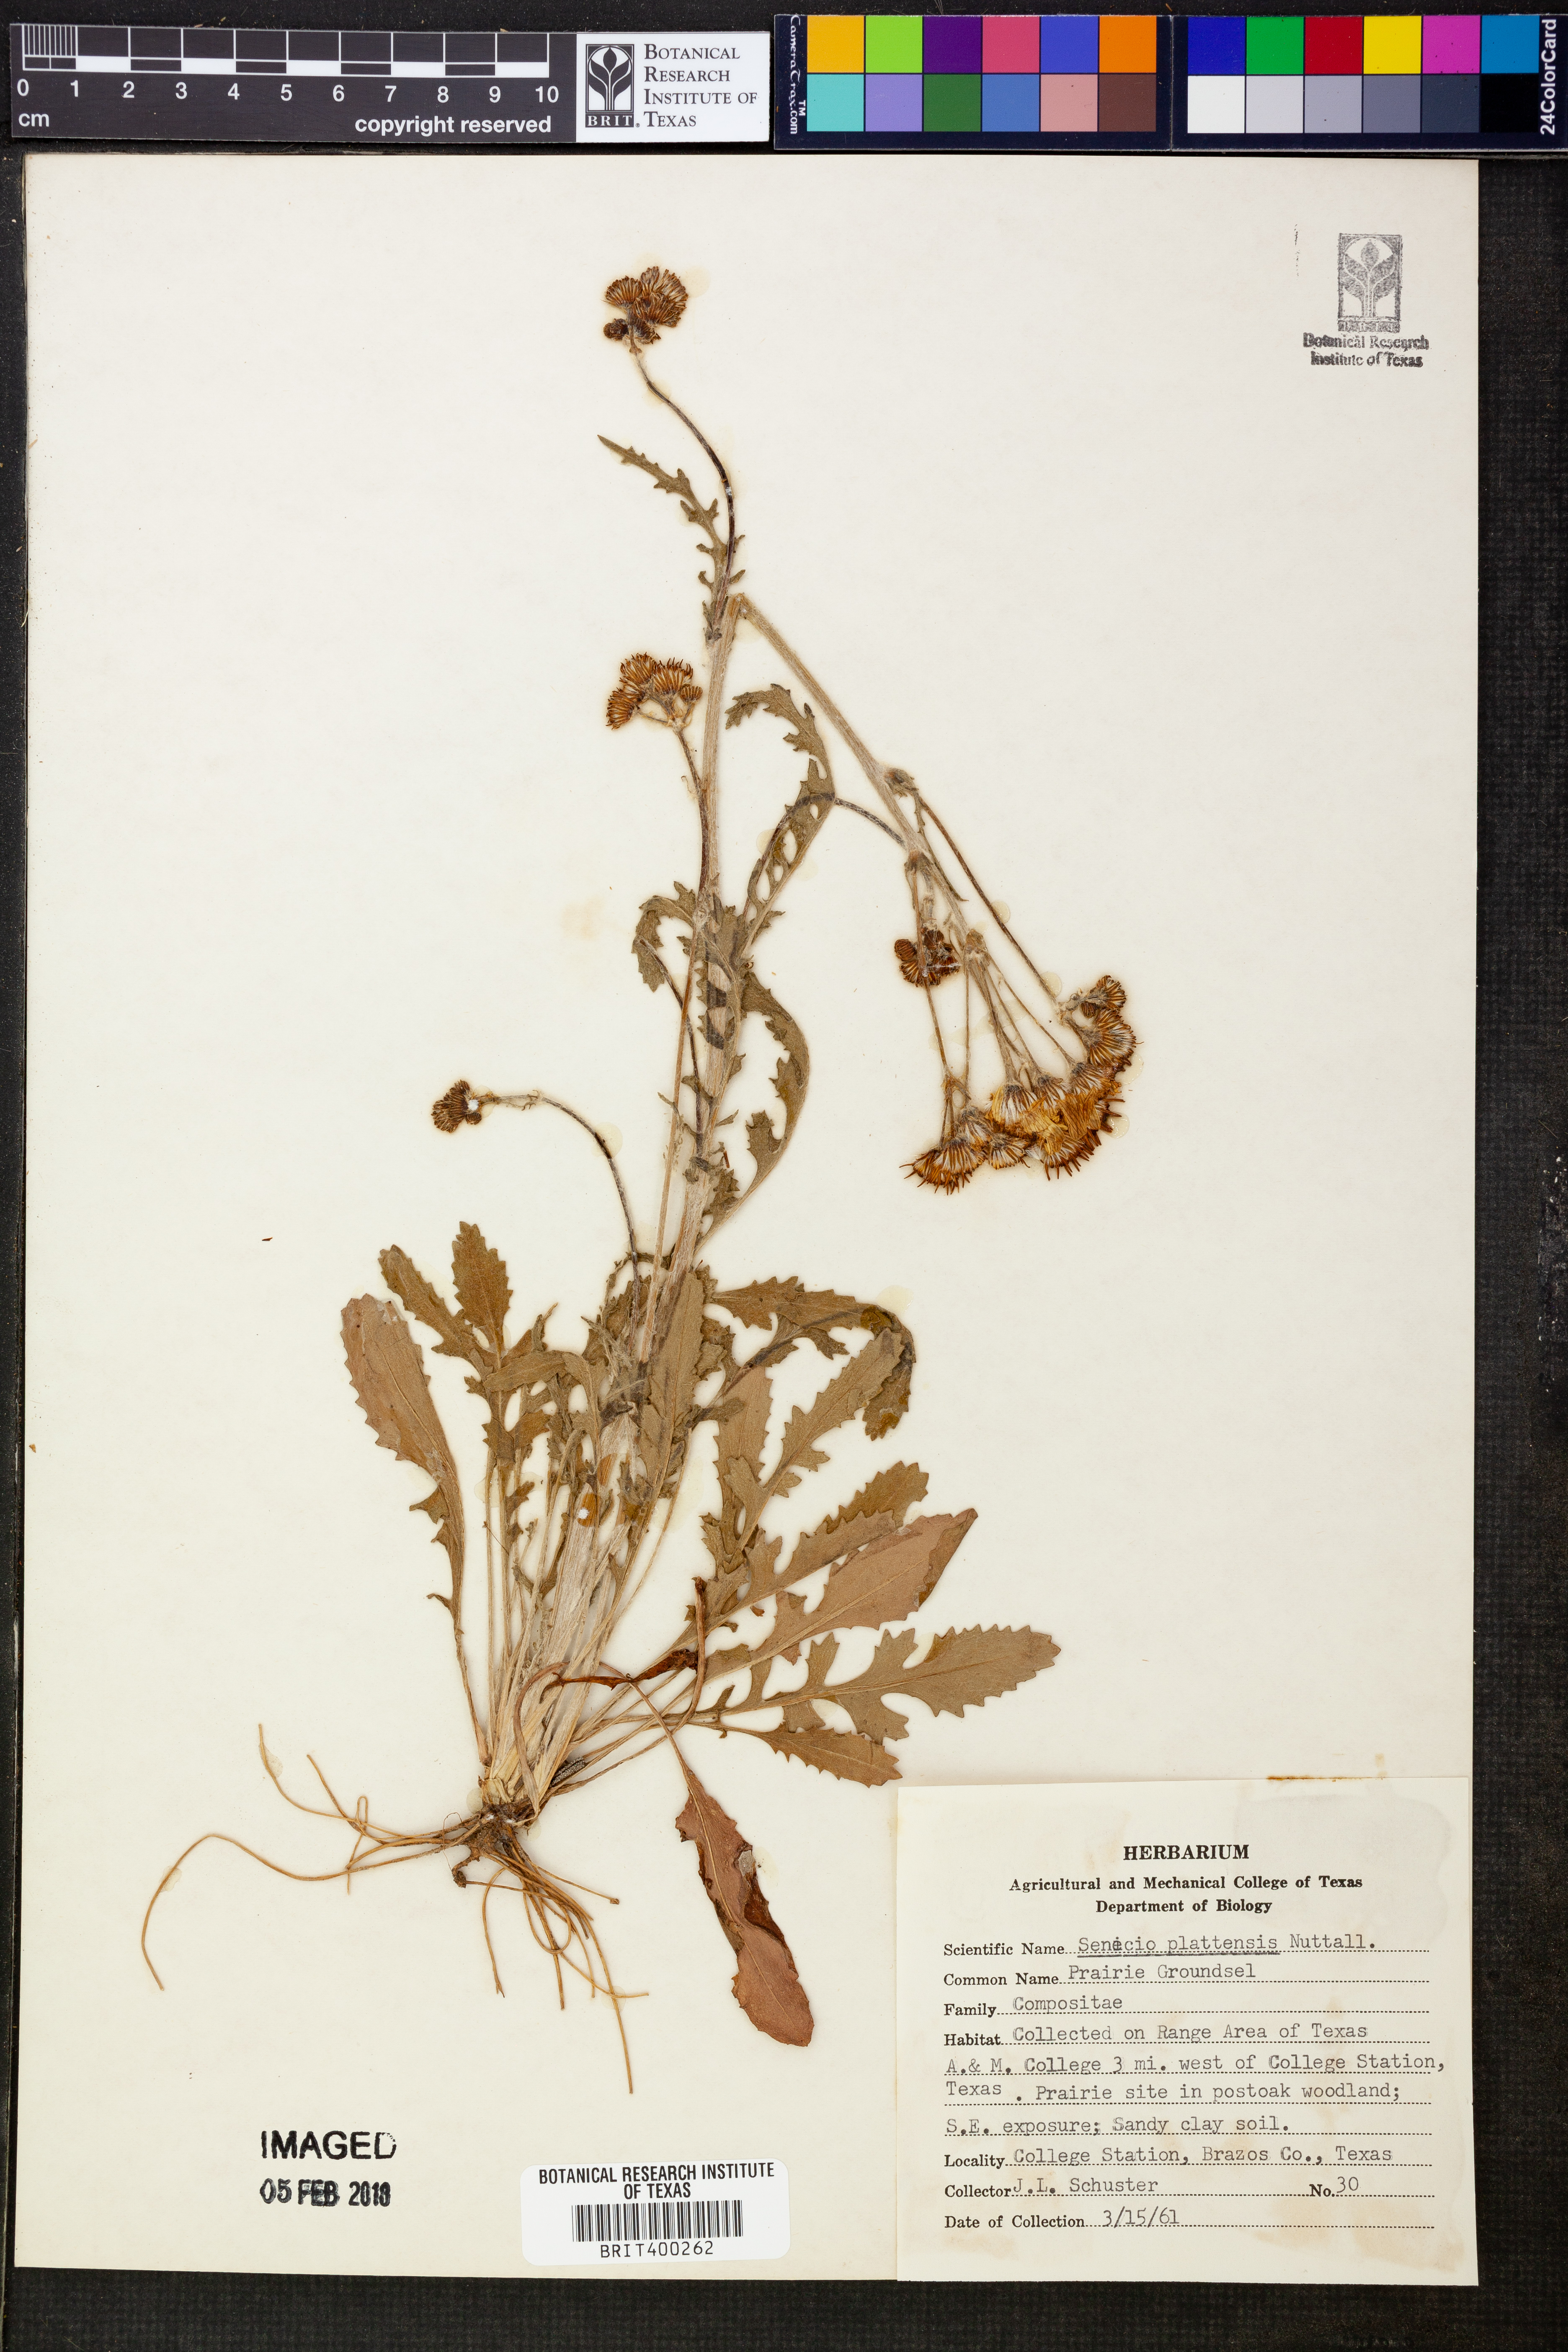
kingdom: Plantae
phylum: Tracheophyta
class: Magnoliopsida
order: Asterales
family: Asteraceae
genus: Packera
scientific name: Packera plattensis
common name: Prairie groundsel
